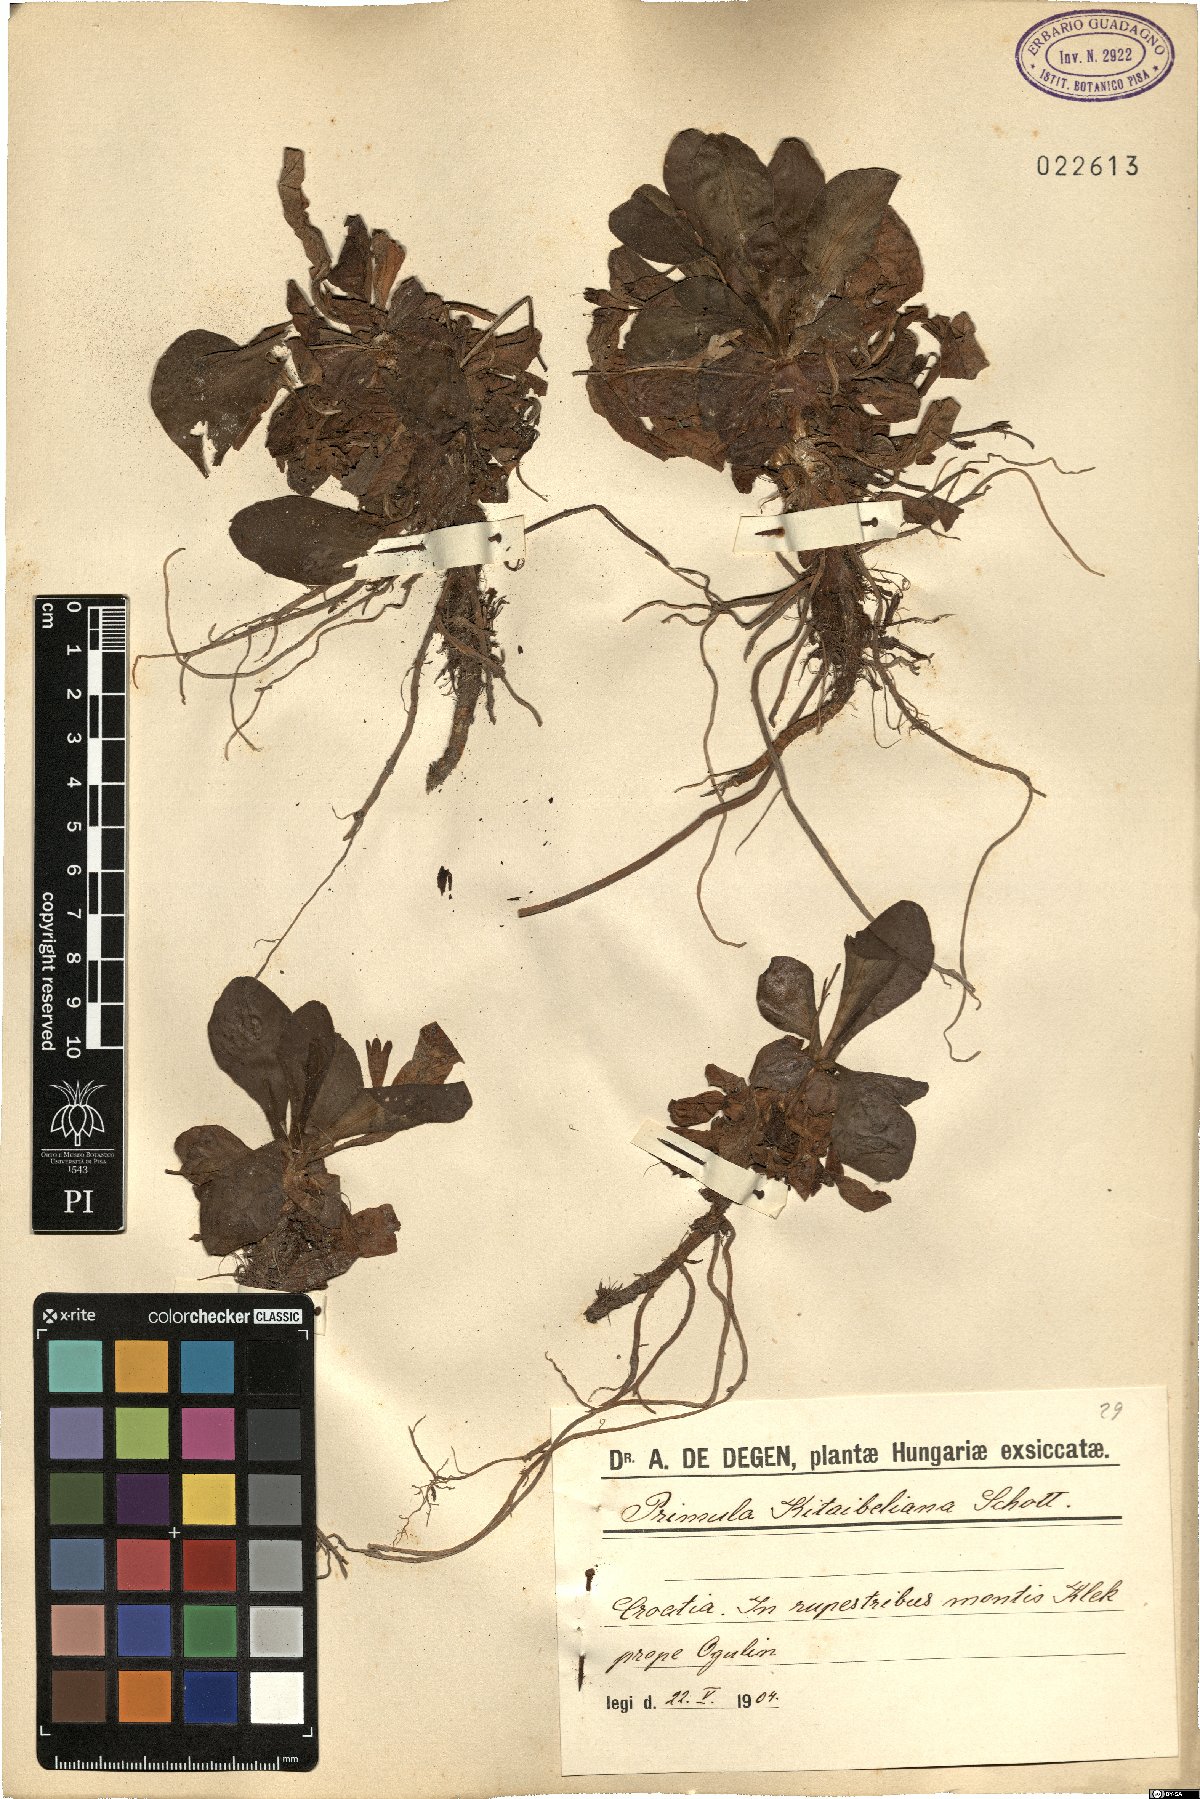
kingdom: Plantae
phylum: Tracheophyta
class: Magnoliopsida
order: Ericales
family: Primulaceae
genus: Primula
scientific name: Primula kitaibeliana
